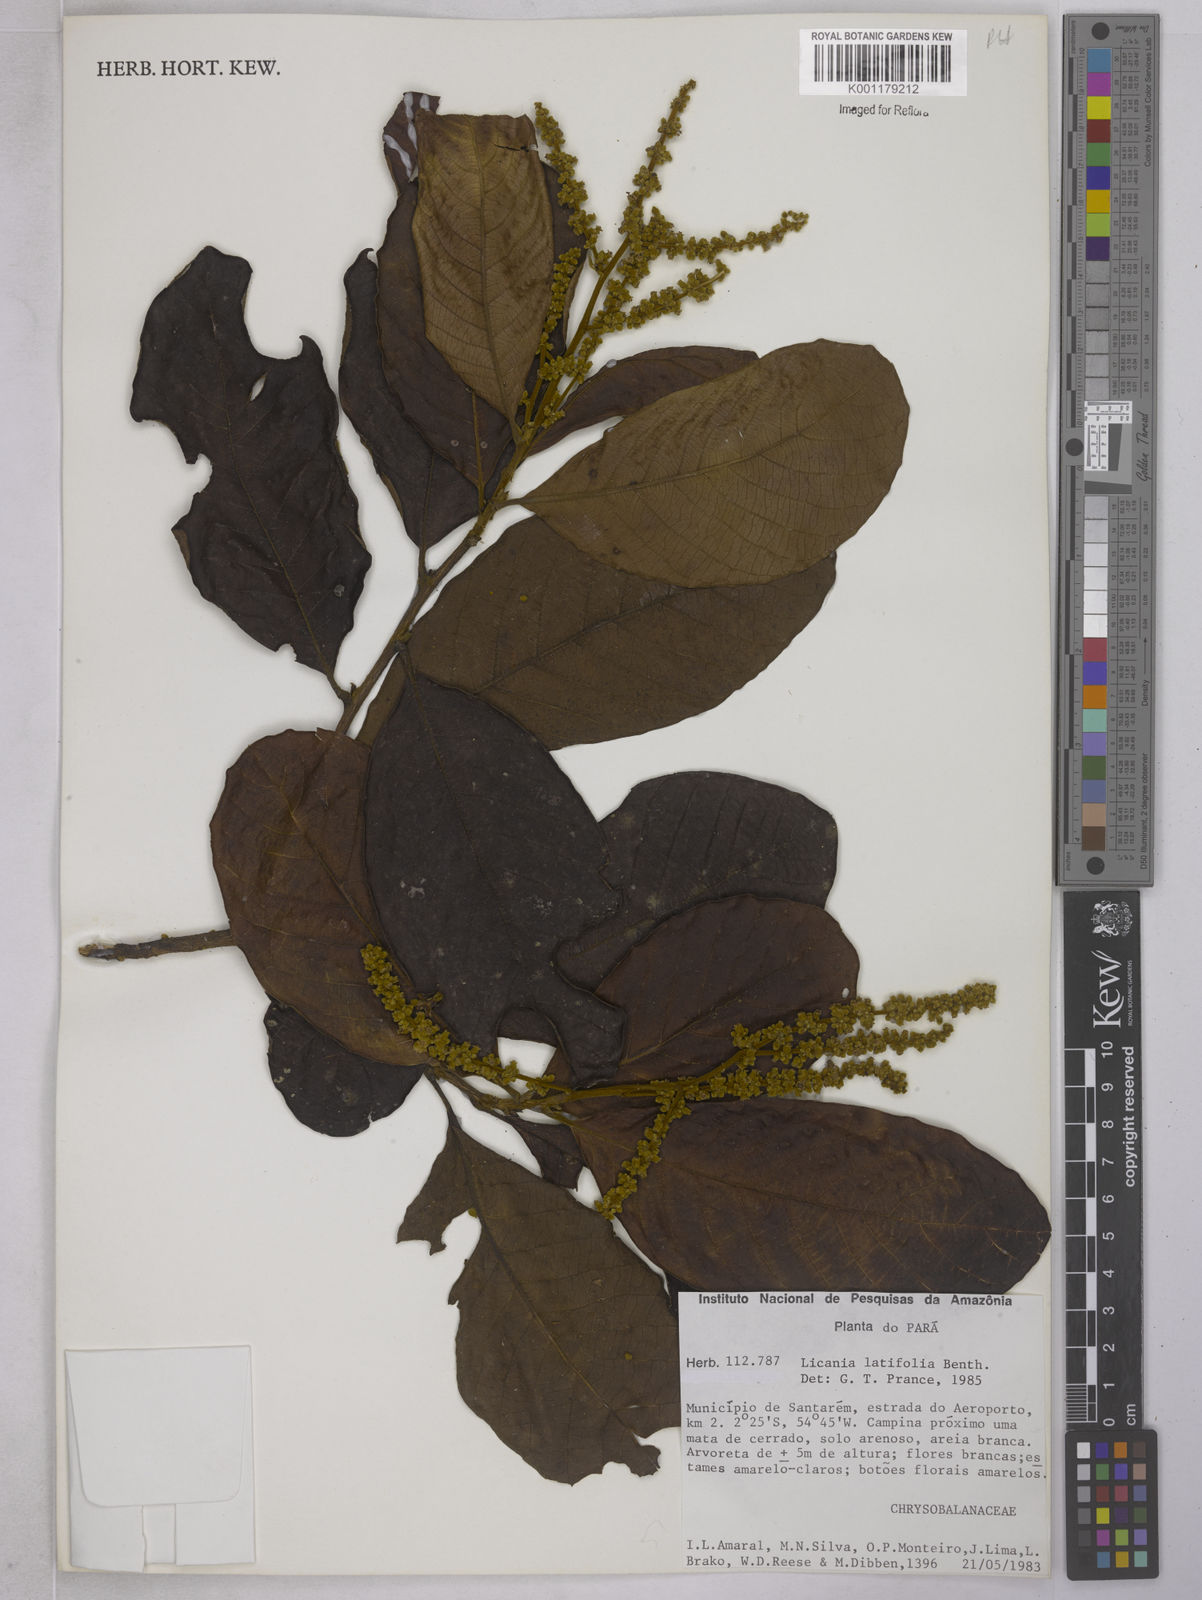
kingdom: Plantae
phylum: Tracheophyta
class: Magnoliopsida
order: Malpighiales
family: Chrysobalanaceae
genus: Hymenopus
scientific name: Hymenopus latifolius
